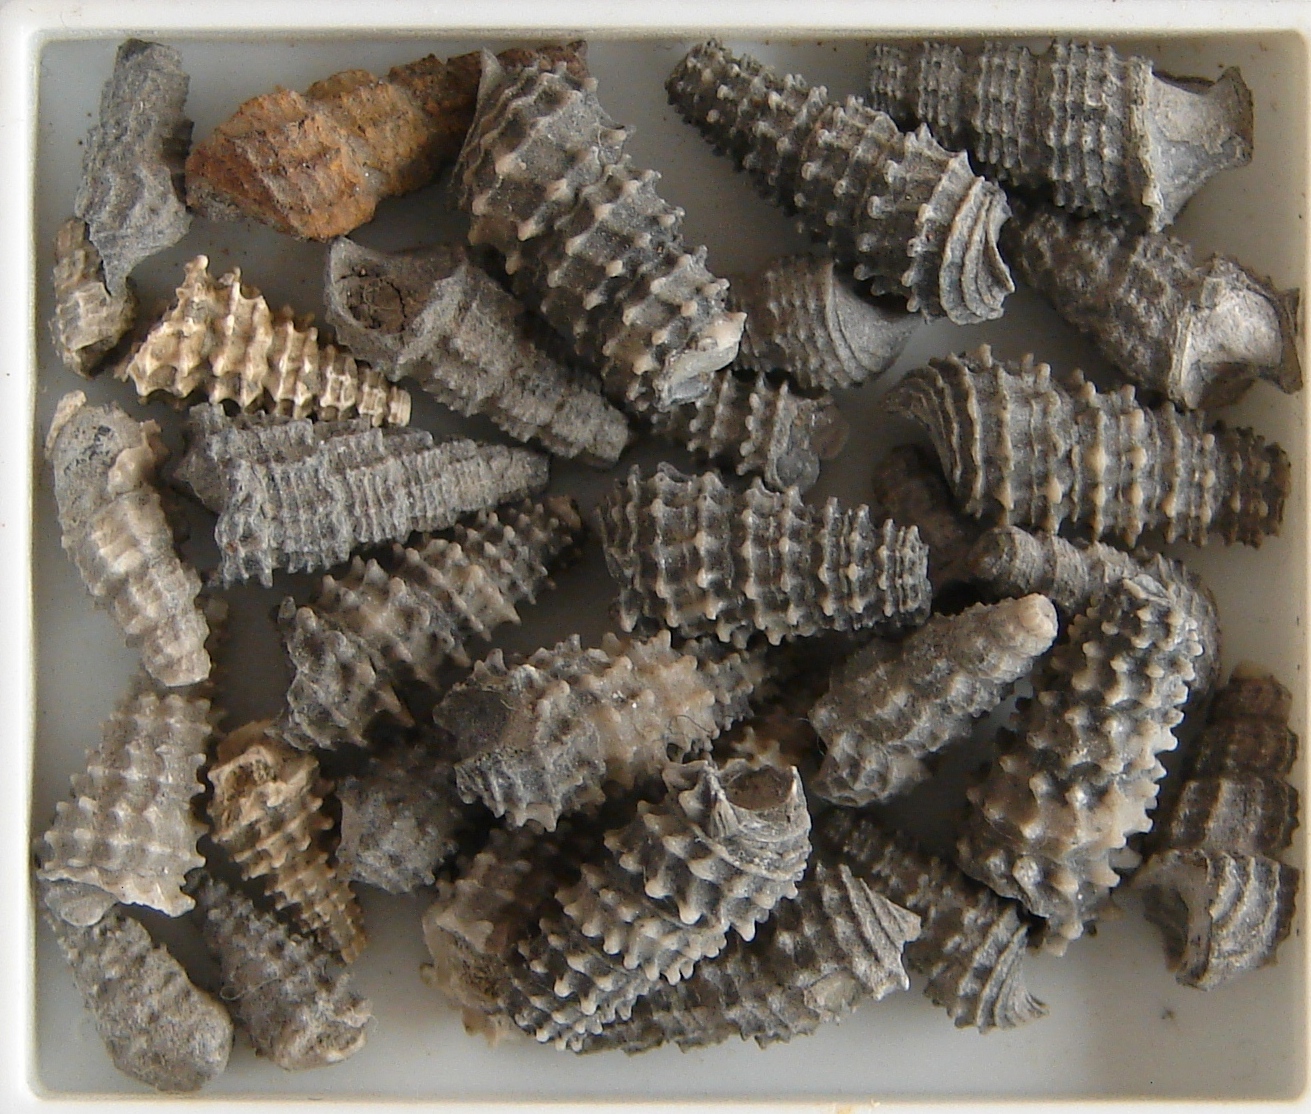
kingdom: Animalia
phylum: Mollusca
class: Gastropoda
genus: Xystrella
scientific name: Xystrella
